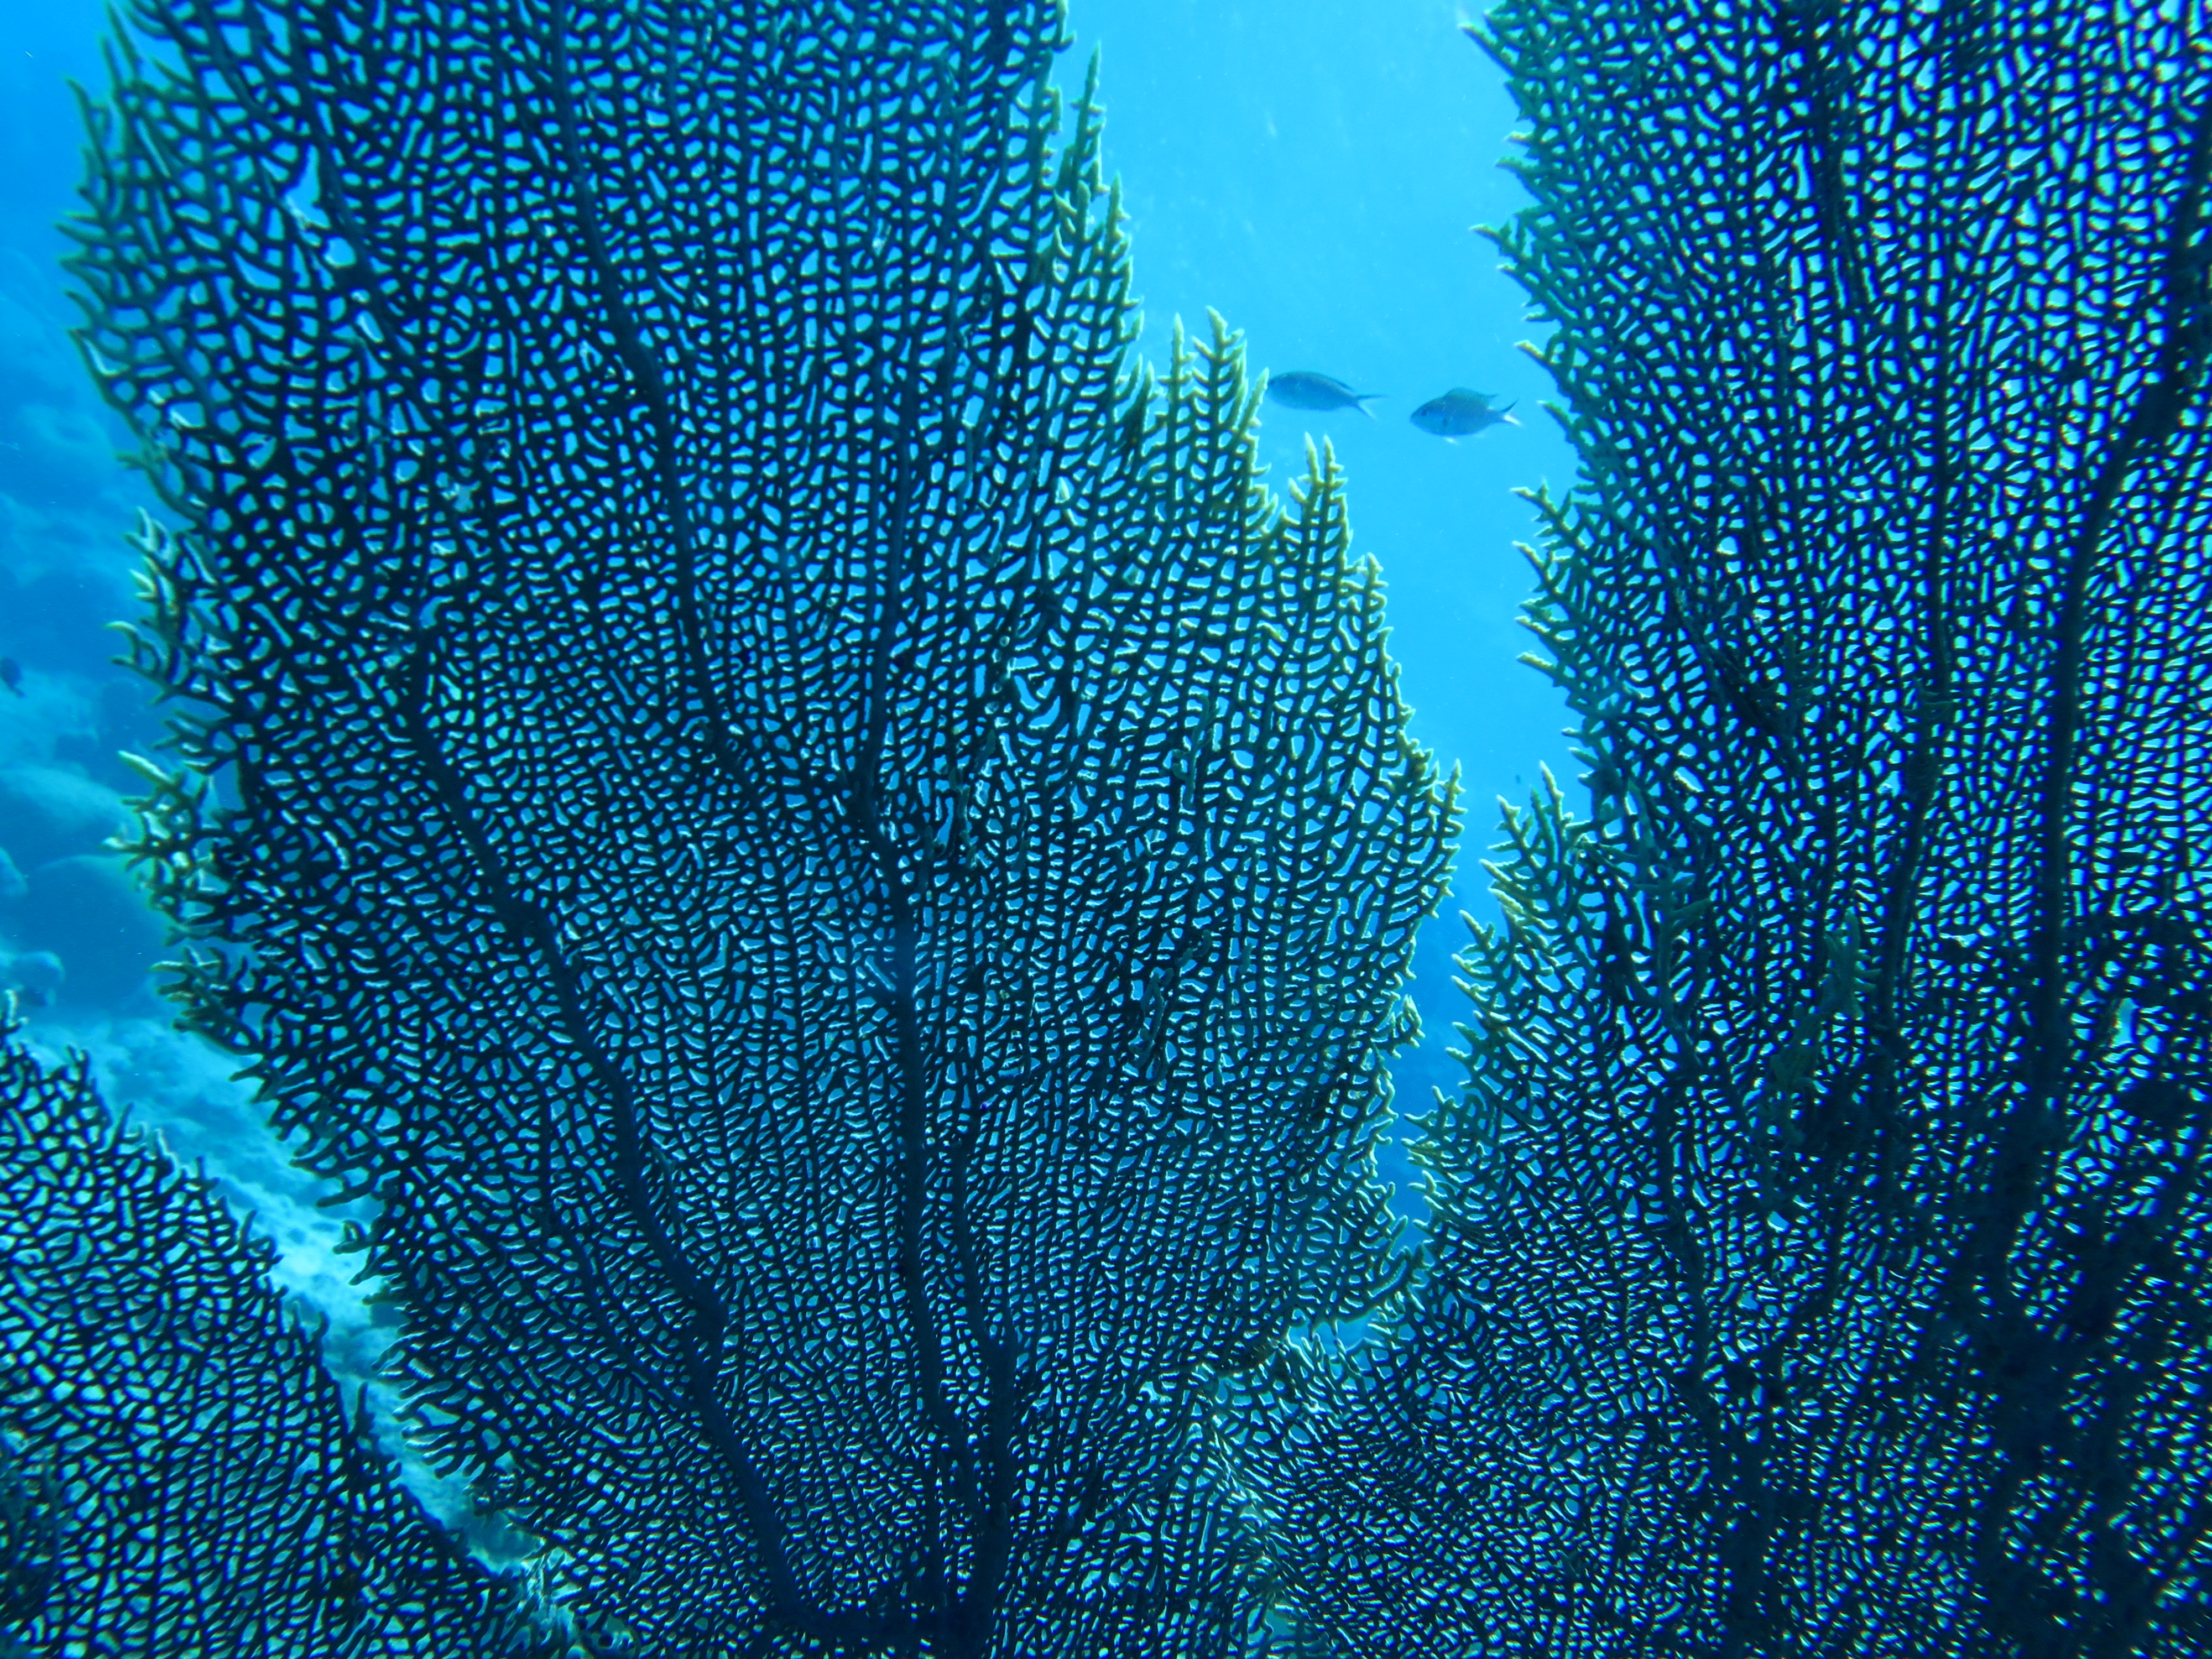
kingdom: Animalia
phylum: Cnidaria
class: Anthozoa
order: Malacalcyonacea
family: Gorgoniidae
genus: Gorgonia
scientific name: Gorgonia
